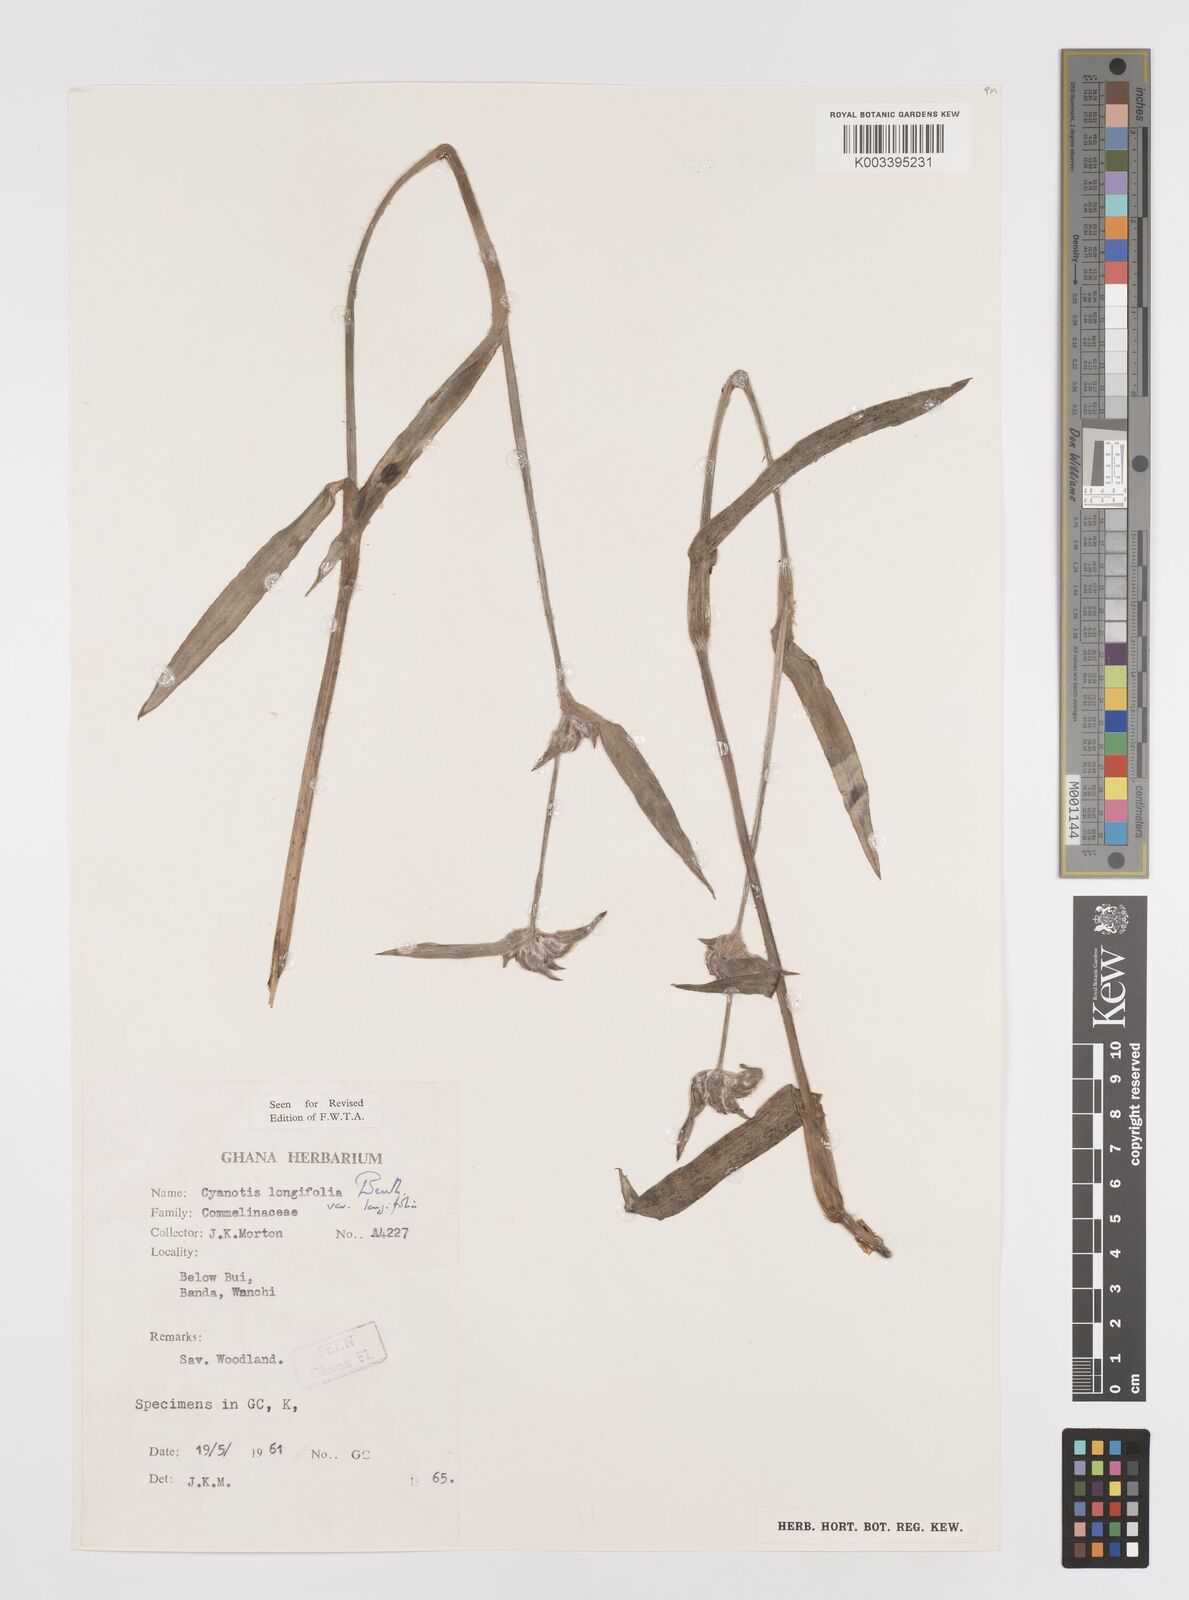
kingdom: Plantae
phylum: Tracheophyta
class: Liliopsida
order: Commelinales
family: Commelinaceae
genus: Cyanotis
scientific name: Cyanotis
